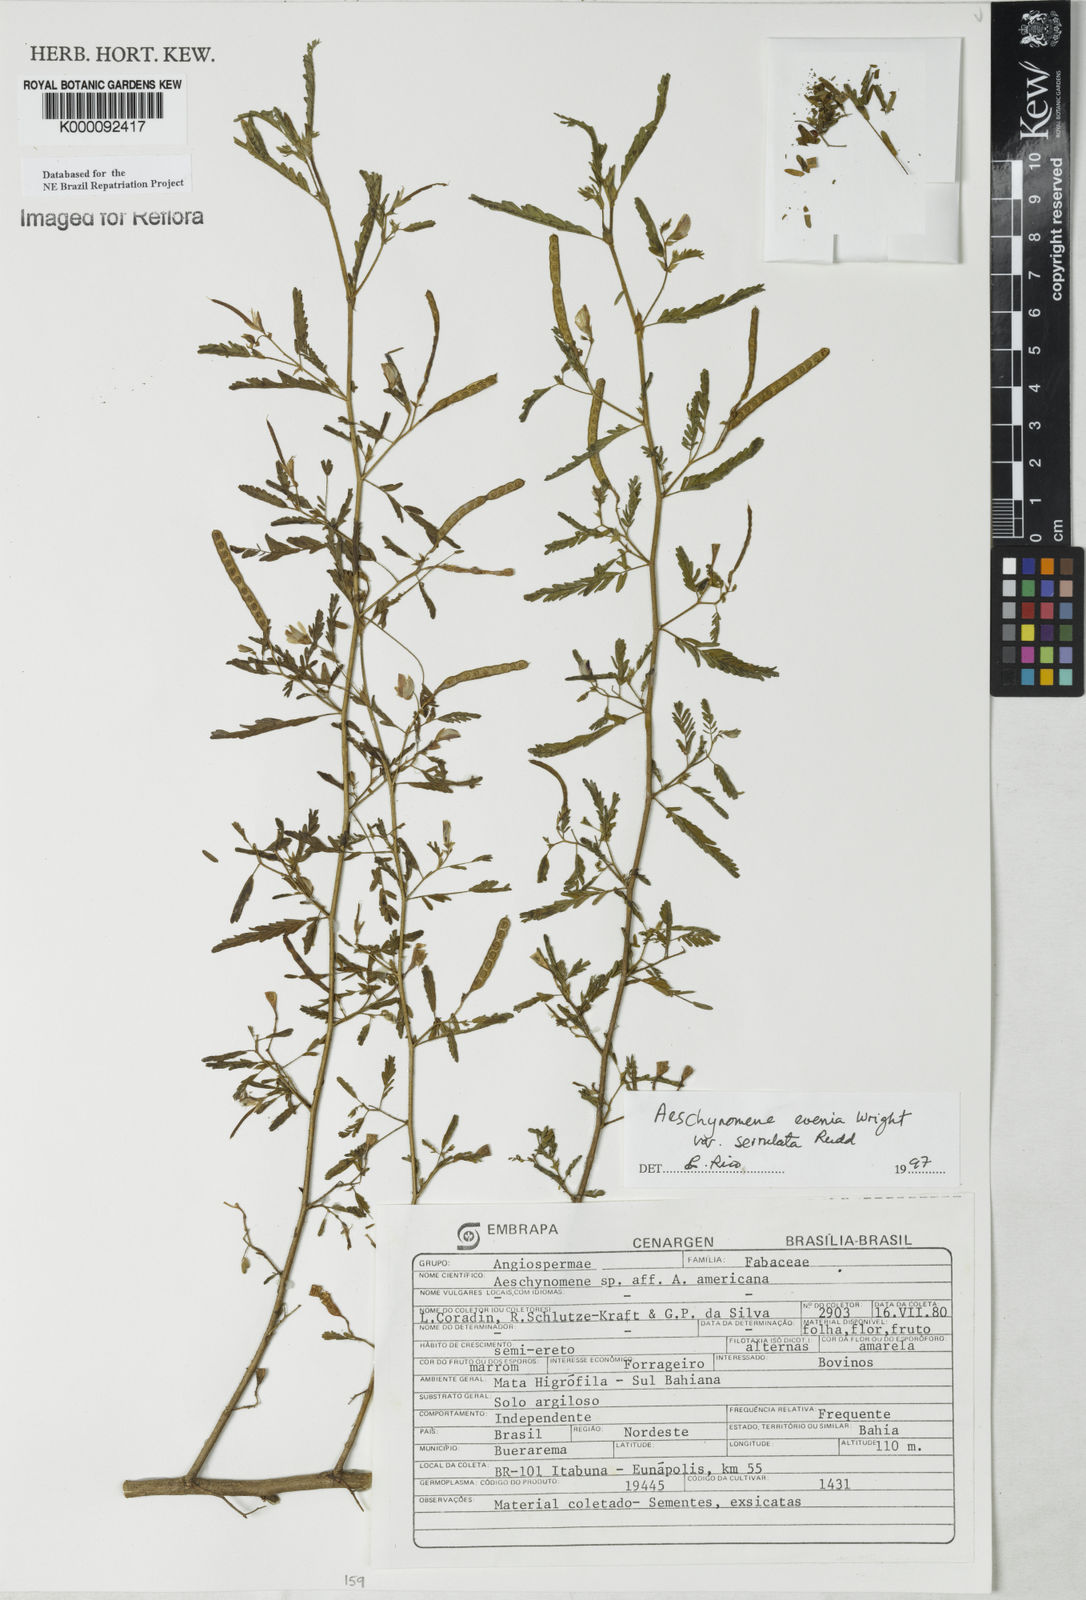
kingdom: Plantae
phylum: Tracheophyta
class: Magnoliopsida
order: Fabales
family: Fabaceae
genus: Aeschynomene
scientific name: Aeschynomene evenia
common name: Shrubby jointvetch
